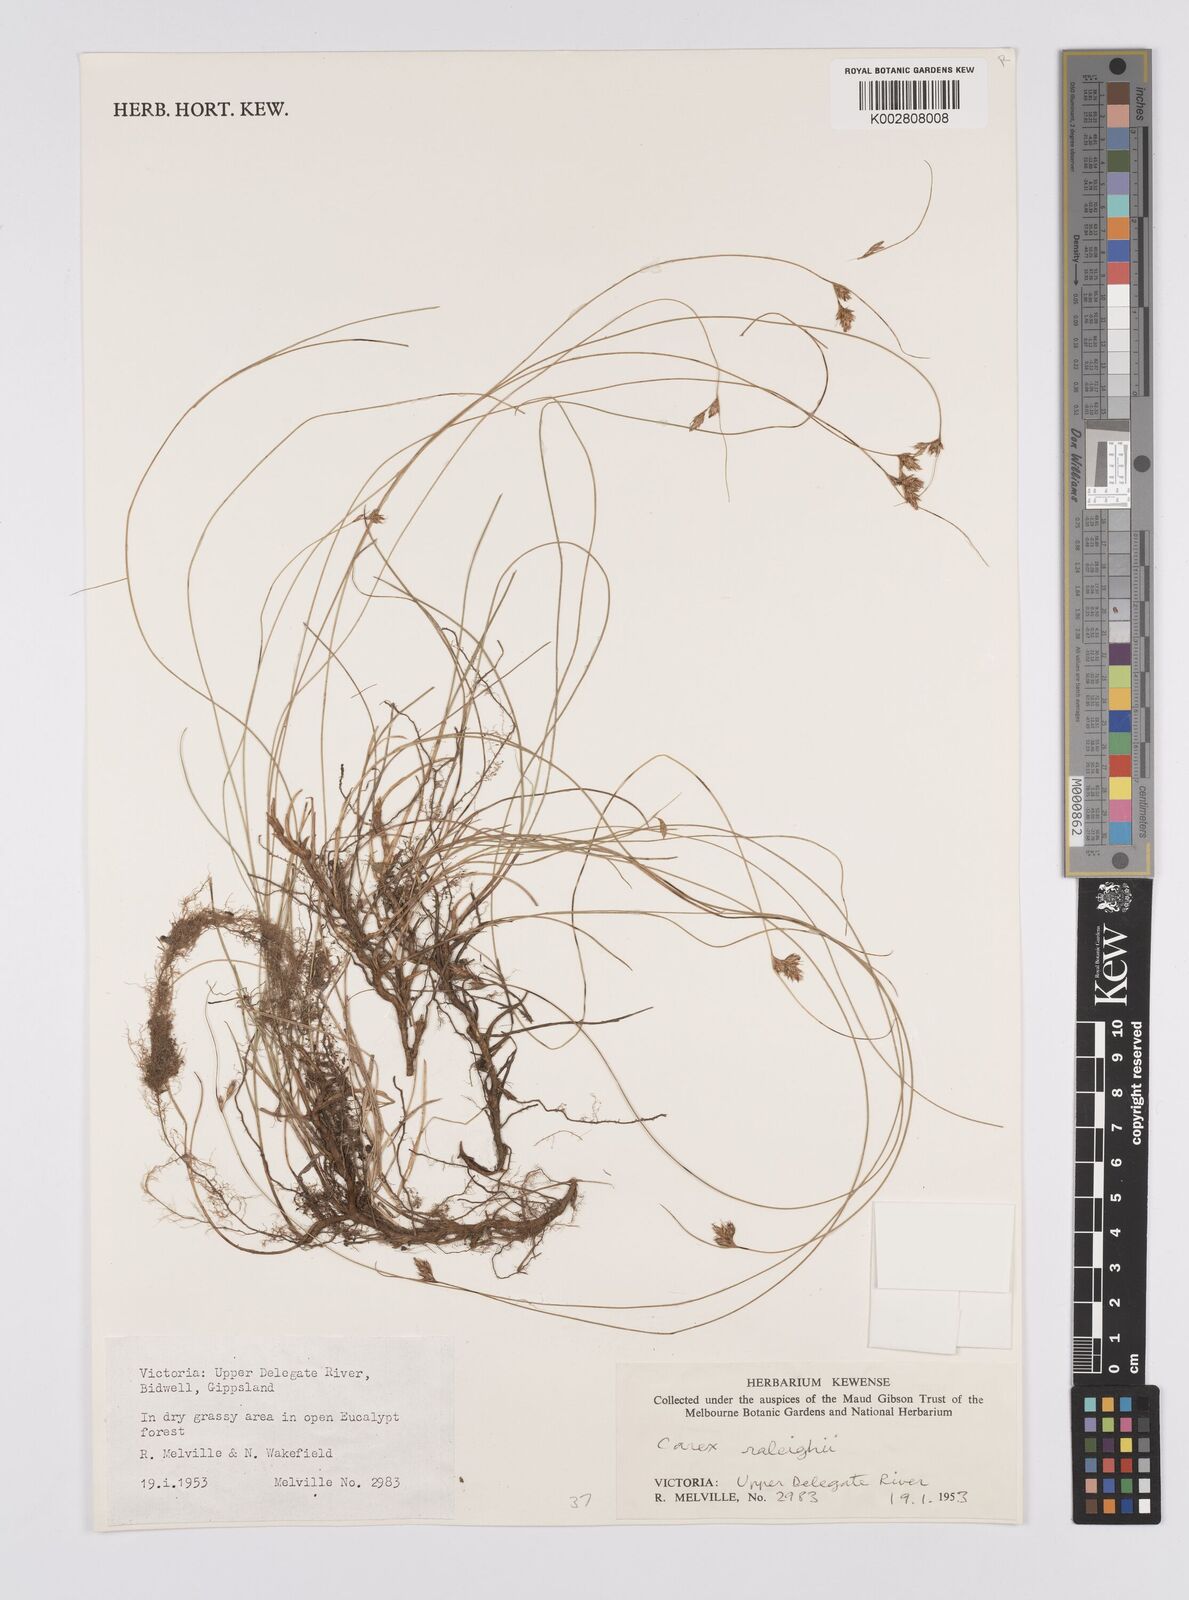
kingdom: Plantae
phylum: Tracheophyta
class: Liliopsida
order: Poales
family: Cyperaceae
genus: Carex
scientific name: Carex raleighii
